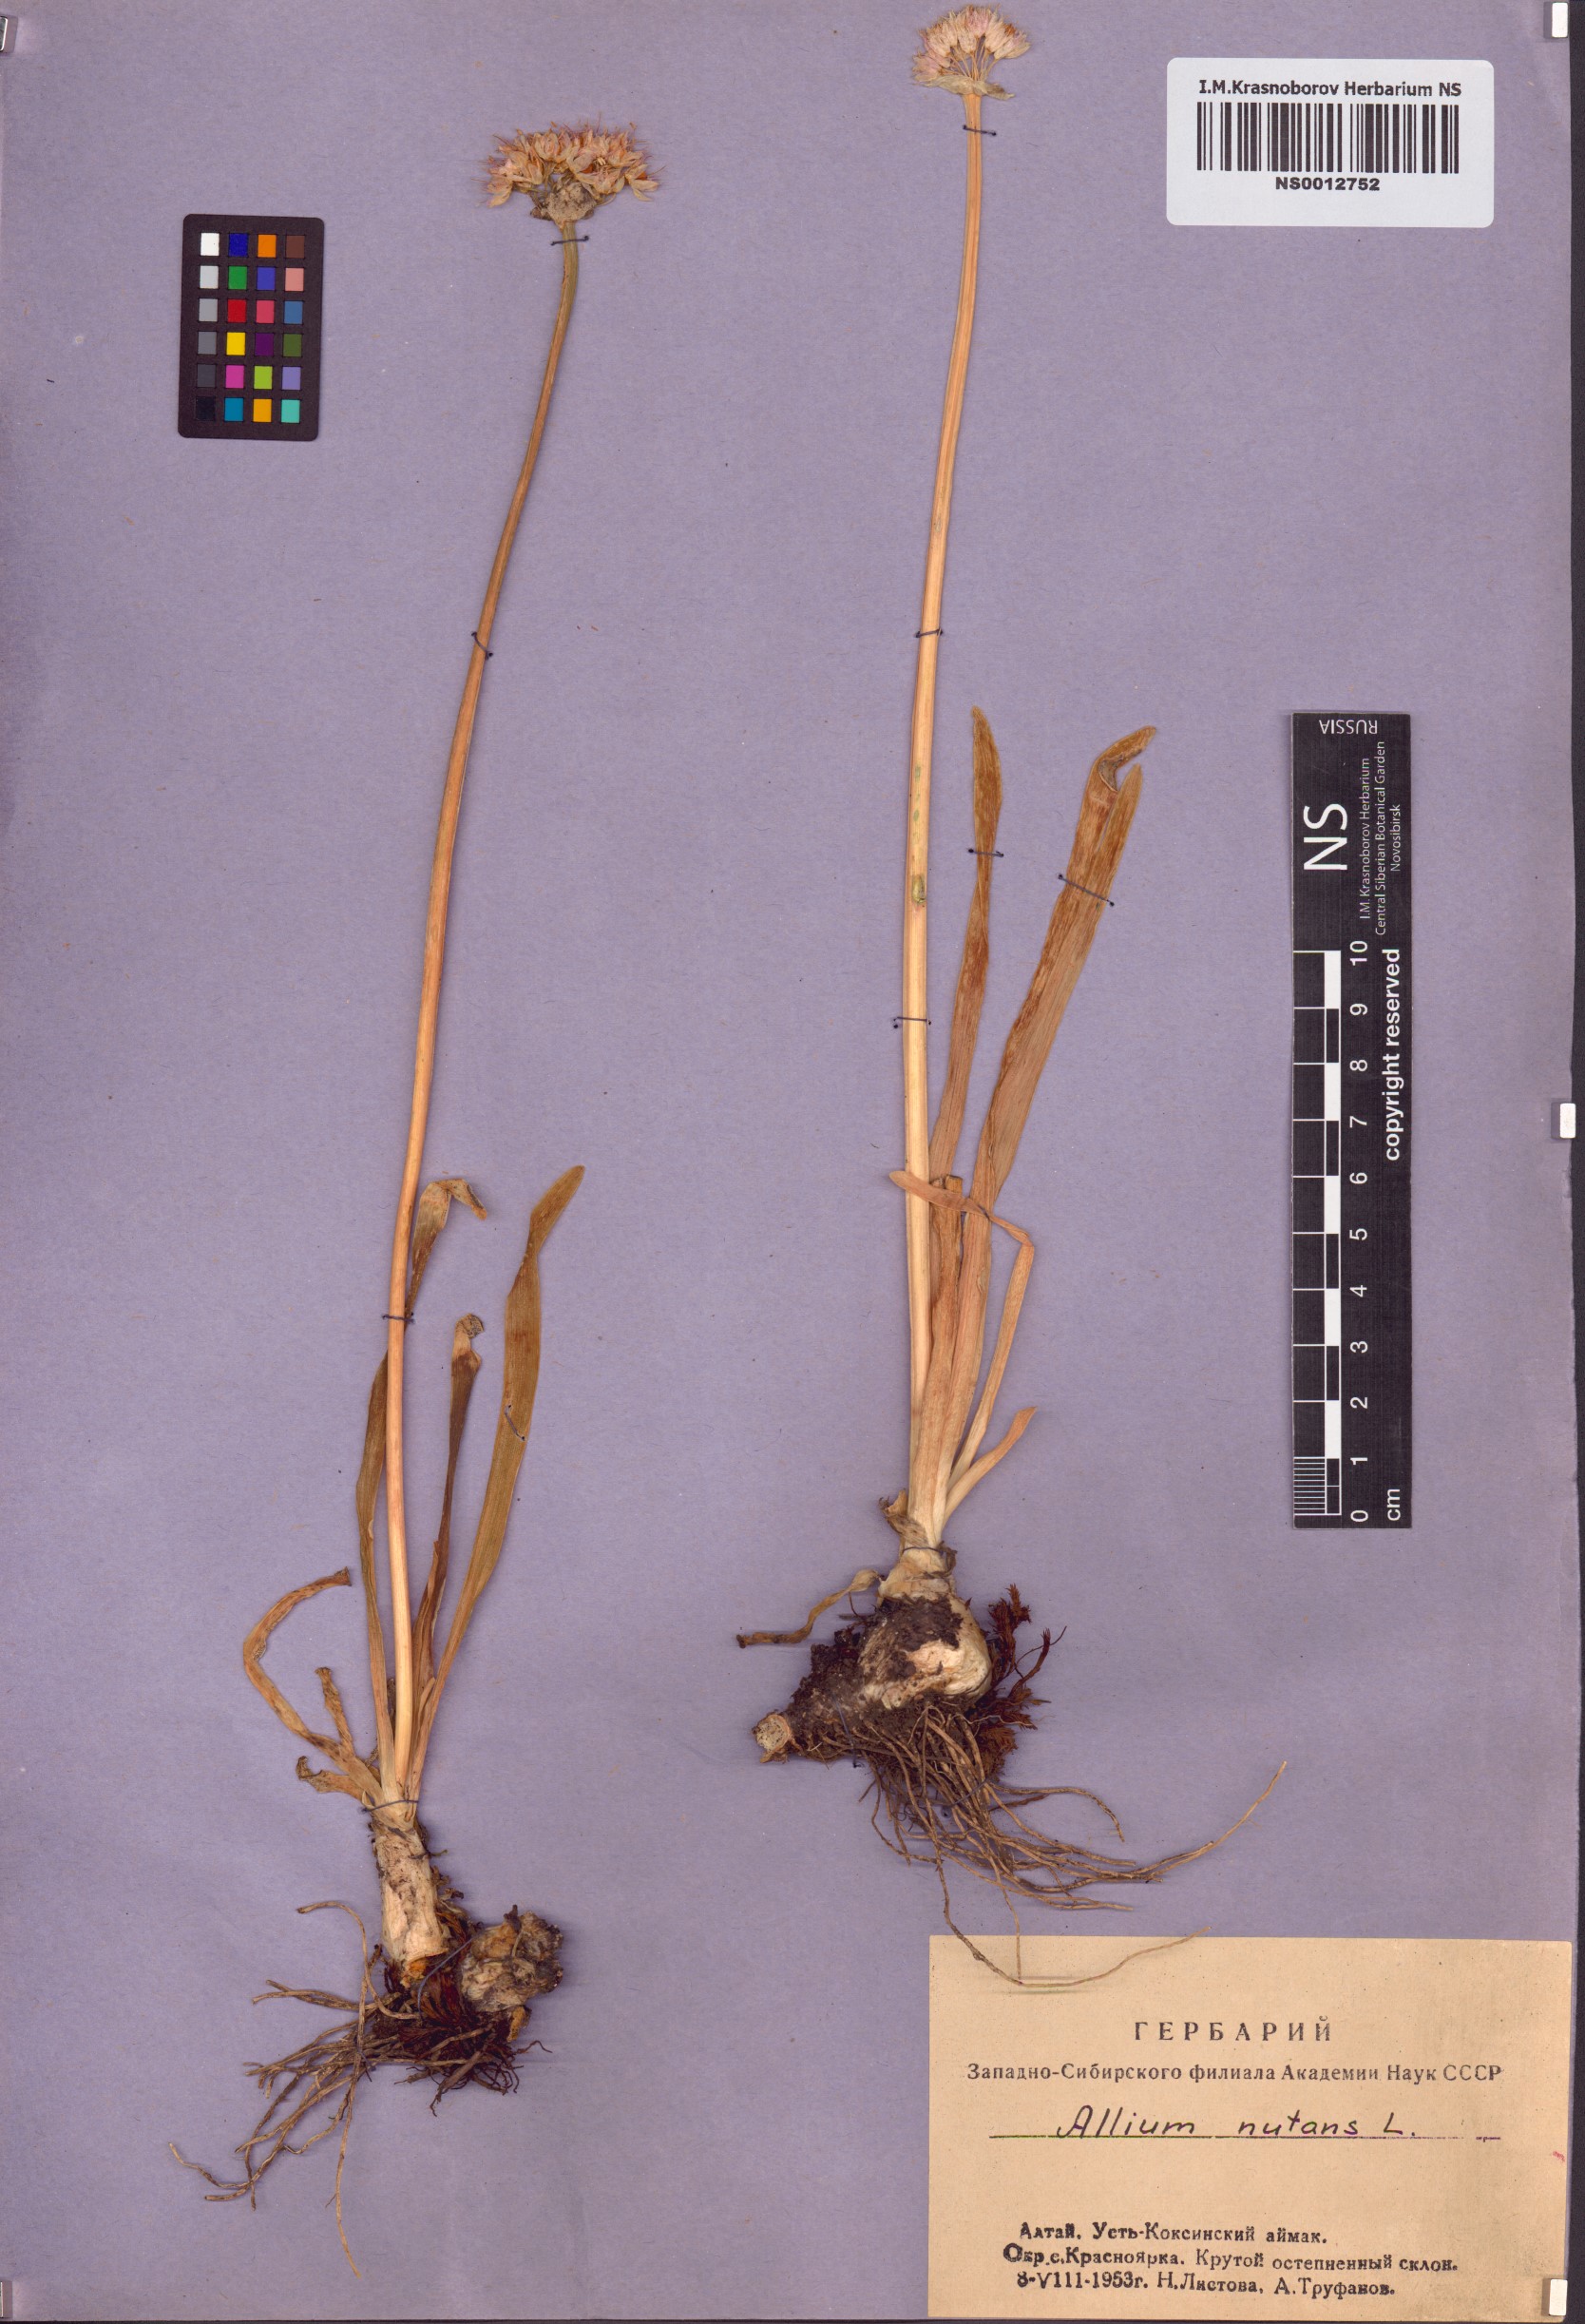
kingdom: Plantae
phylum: Tracheophyta
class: Liliopsida
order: Asparagales
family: Amaryllidaceae
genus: Allium
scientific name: Allium nutans
